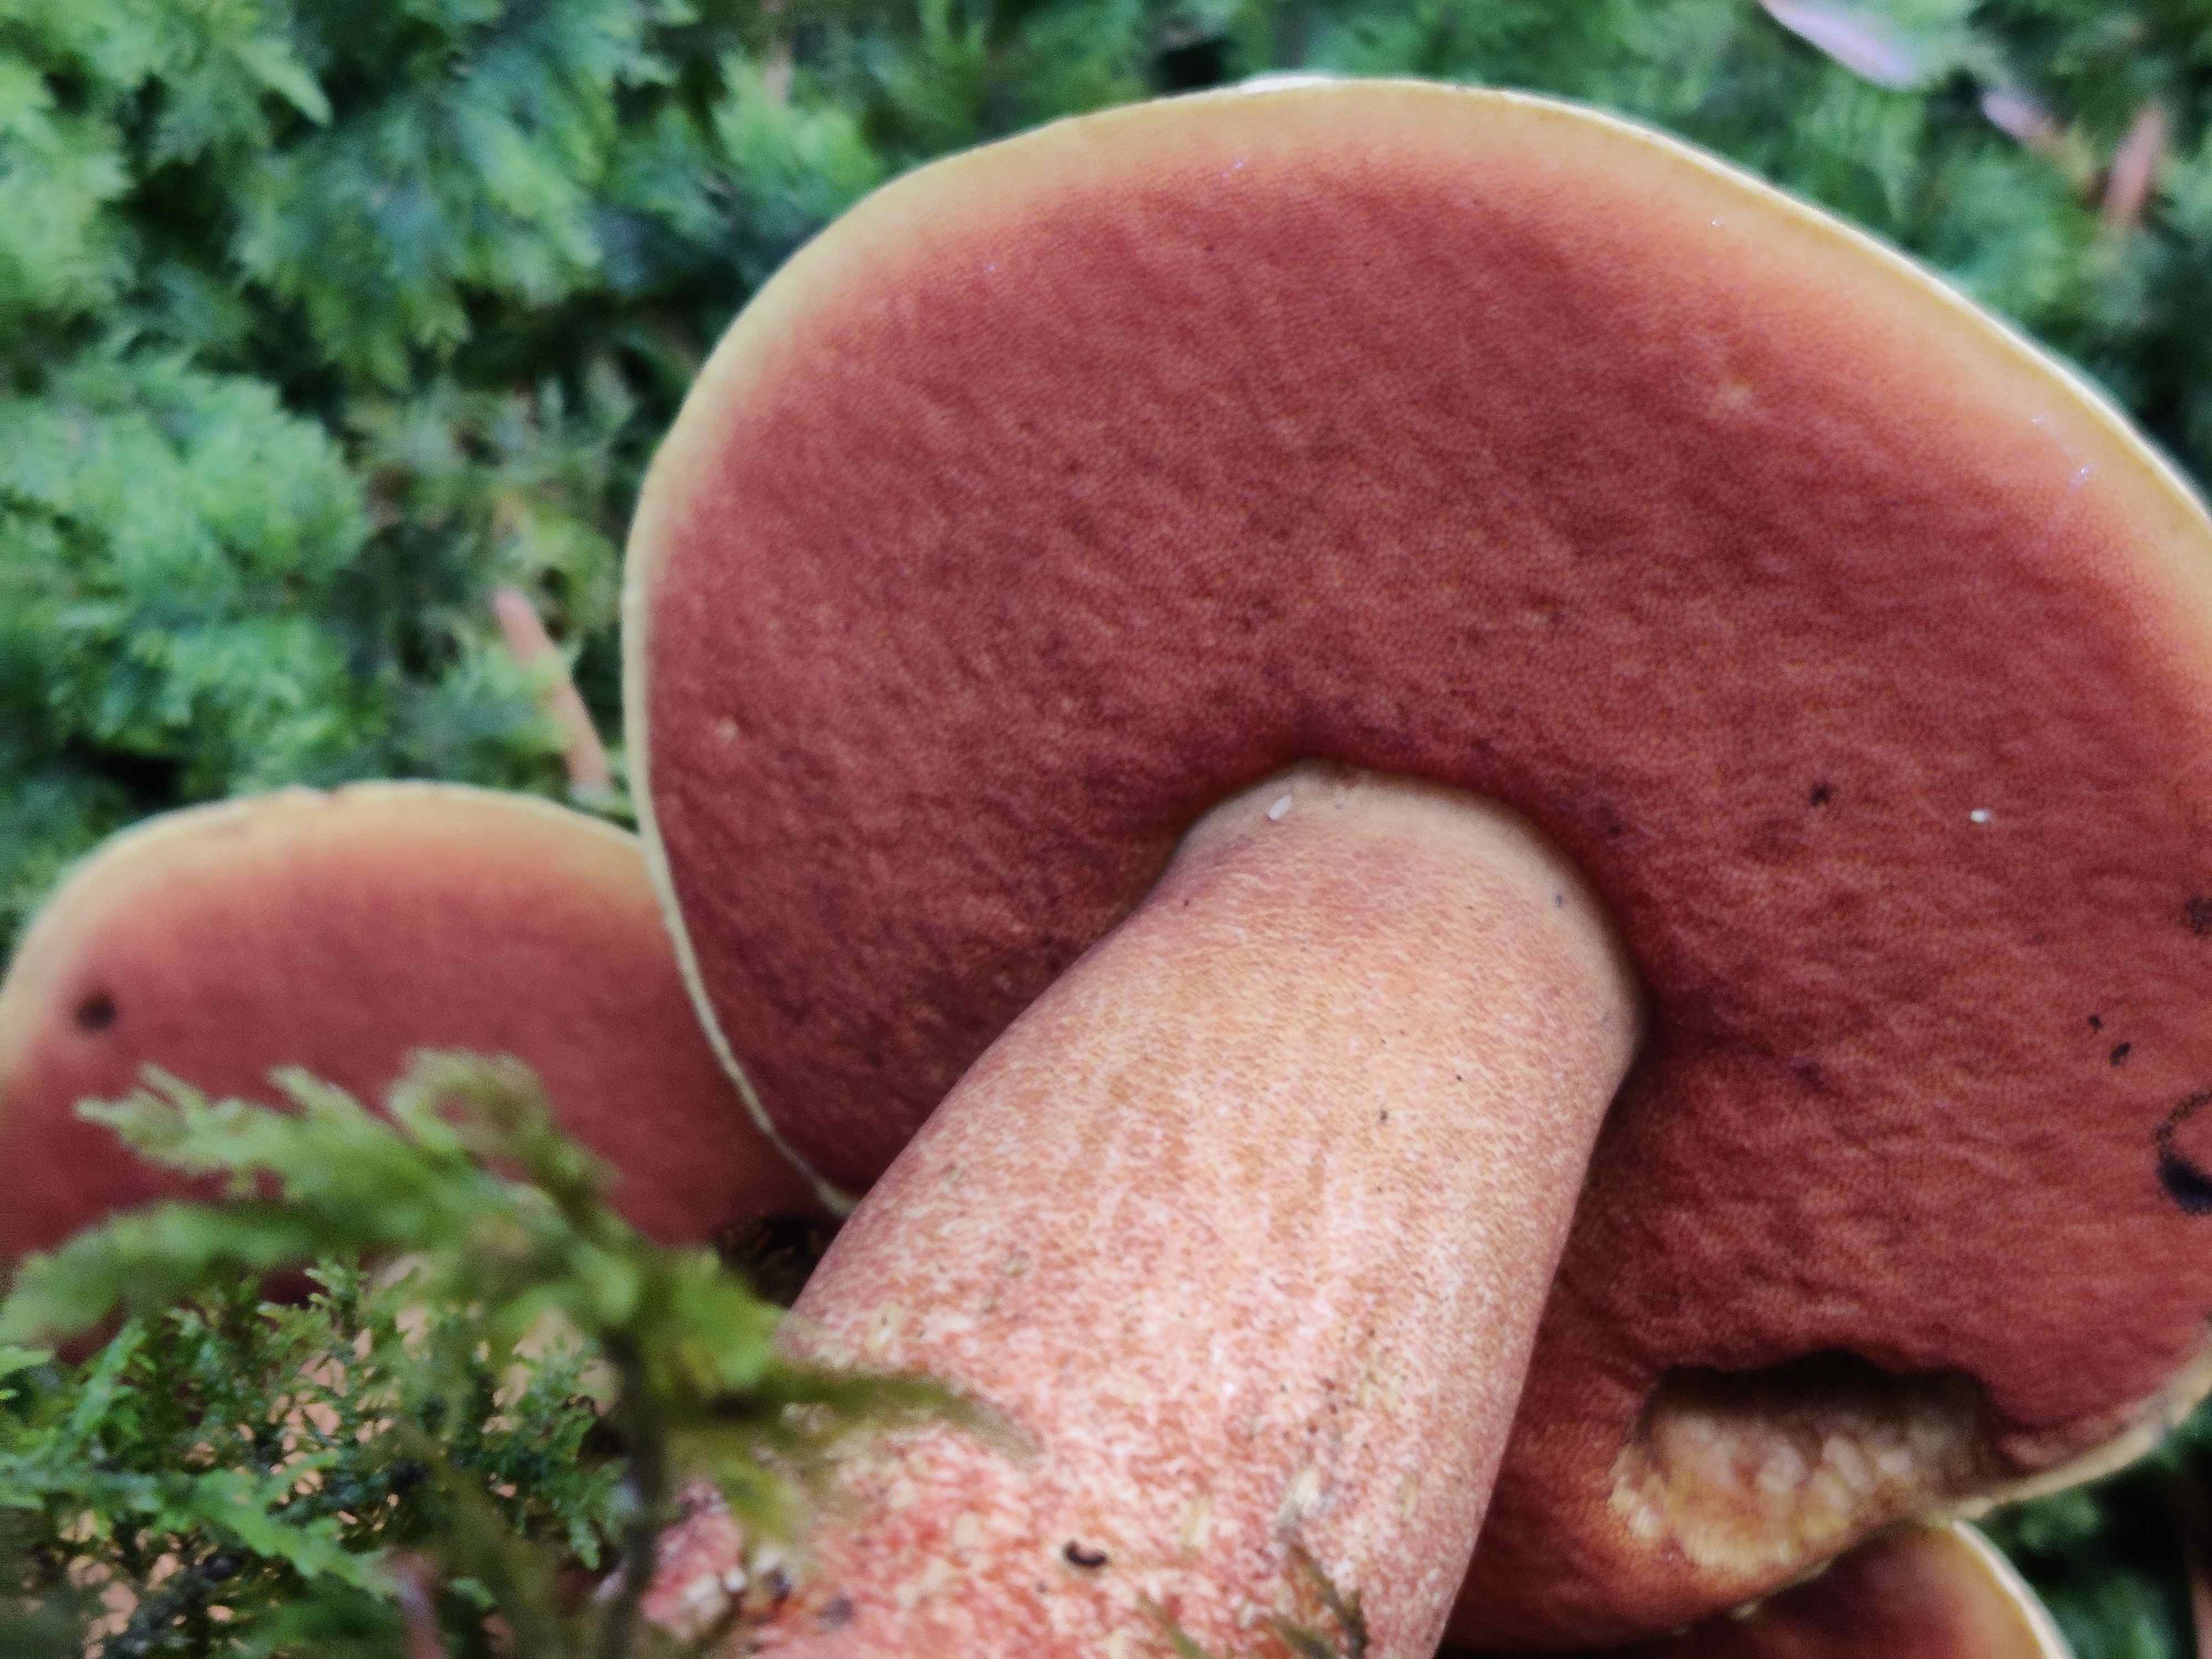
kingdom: Fungi
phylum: Basidiomycota
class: Agaricomycetes
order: Boletales
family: Boletaceae
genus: Neoboletus
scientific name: Neoboletus erythropus
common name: punktstokket indigorørhat
